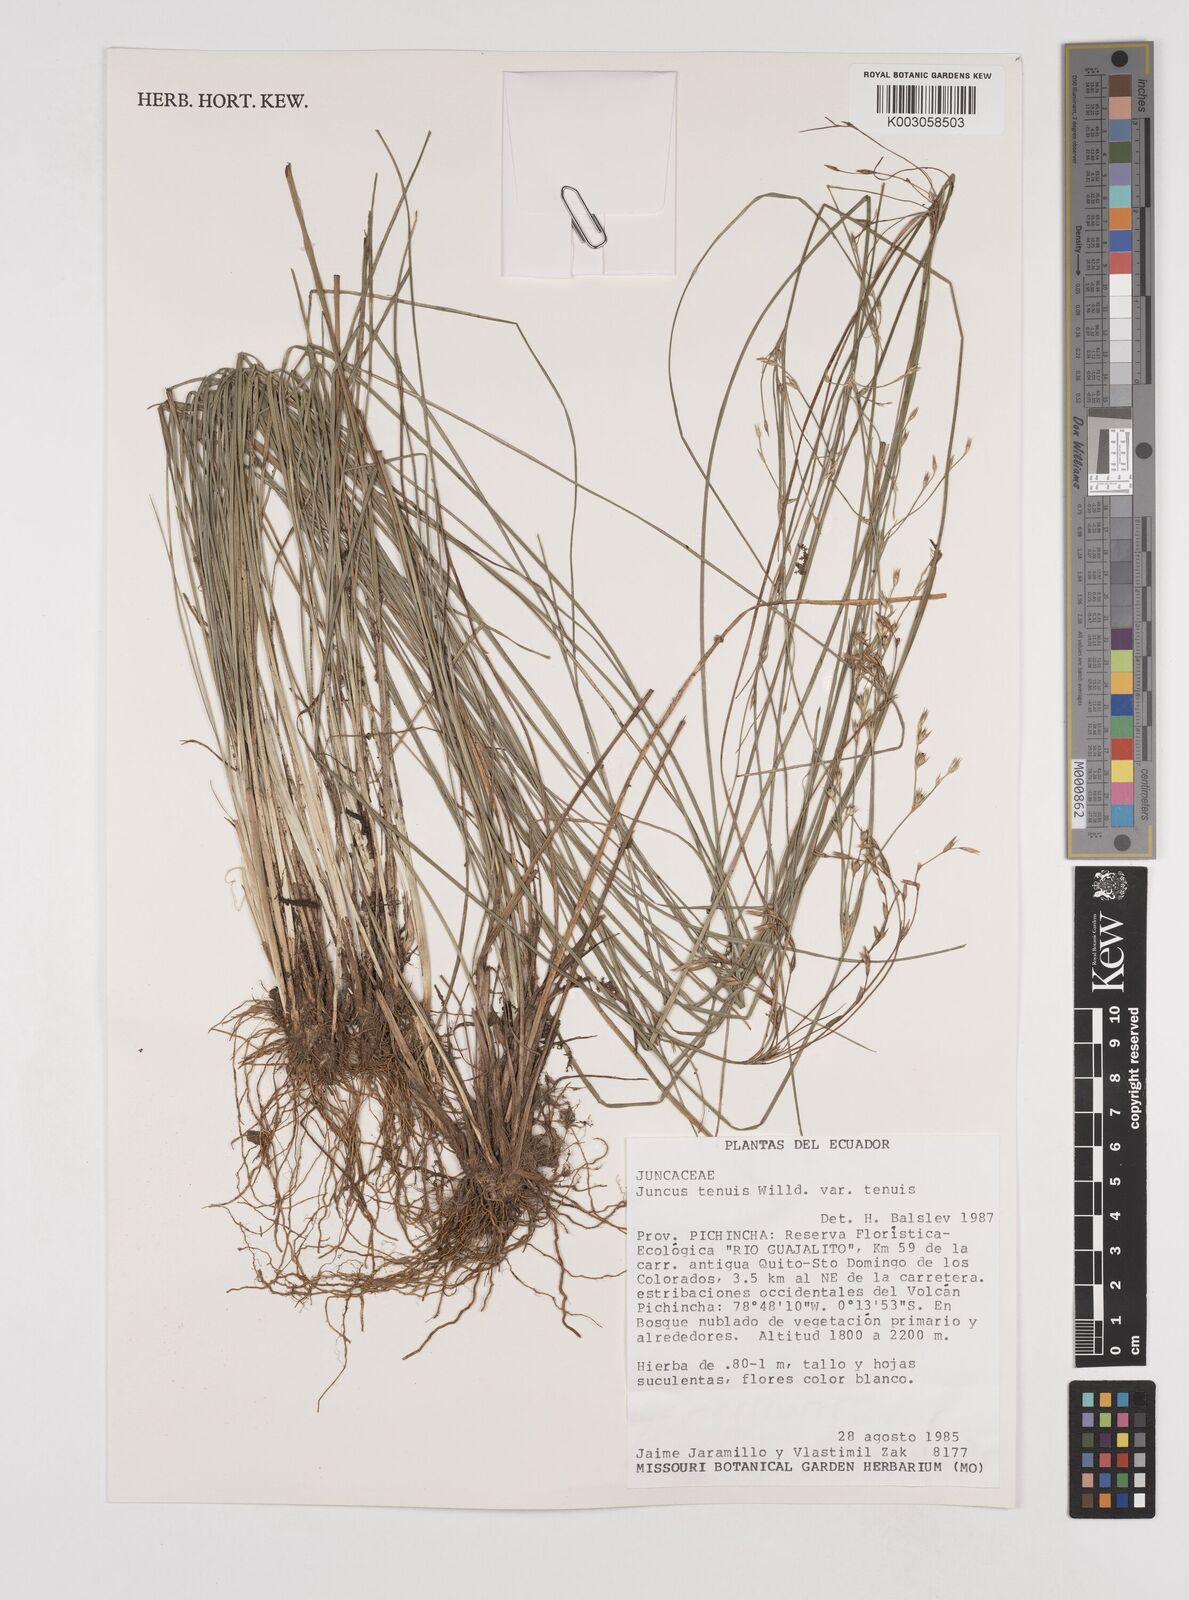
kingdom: Plantae
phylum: Tracheophyta
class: Liliopsida
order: Poales
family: Juncaceae
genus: Juncus
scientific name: Juncus tenuis
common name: Slender rush
